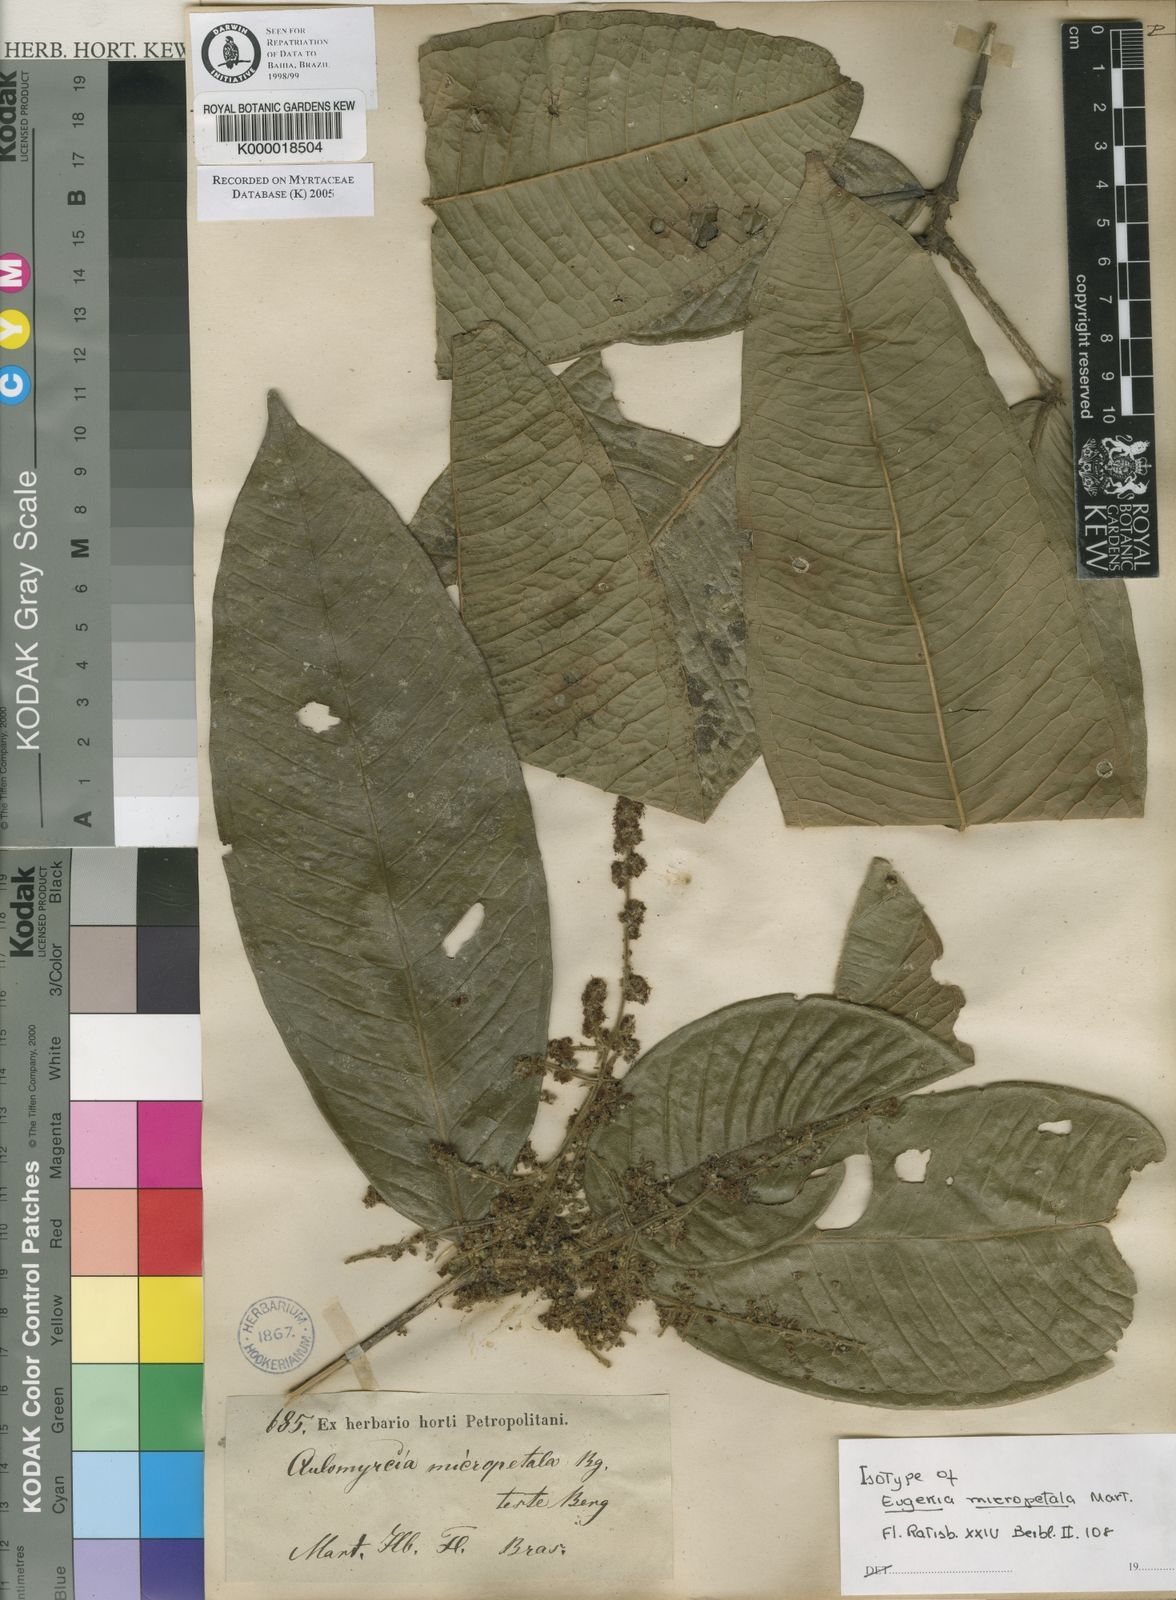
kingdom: Plantae
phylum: Tracheophyta
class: Magnoliopsida
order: Myrtales
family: Myrtaceae
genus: Myrcia
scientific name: Myrcia micropetala
